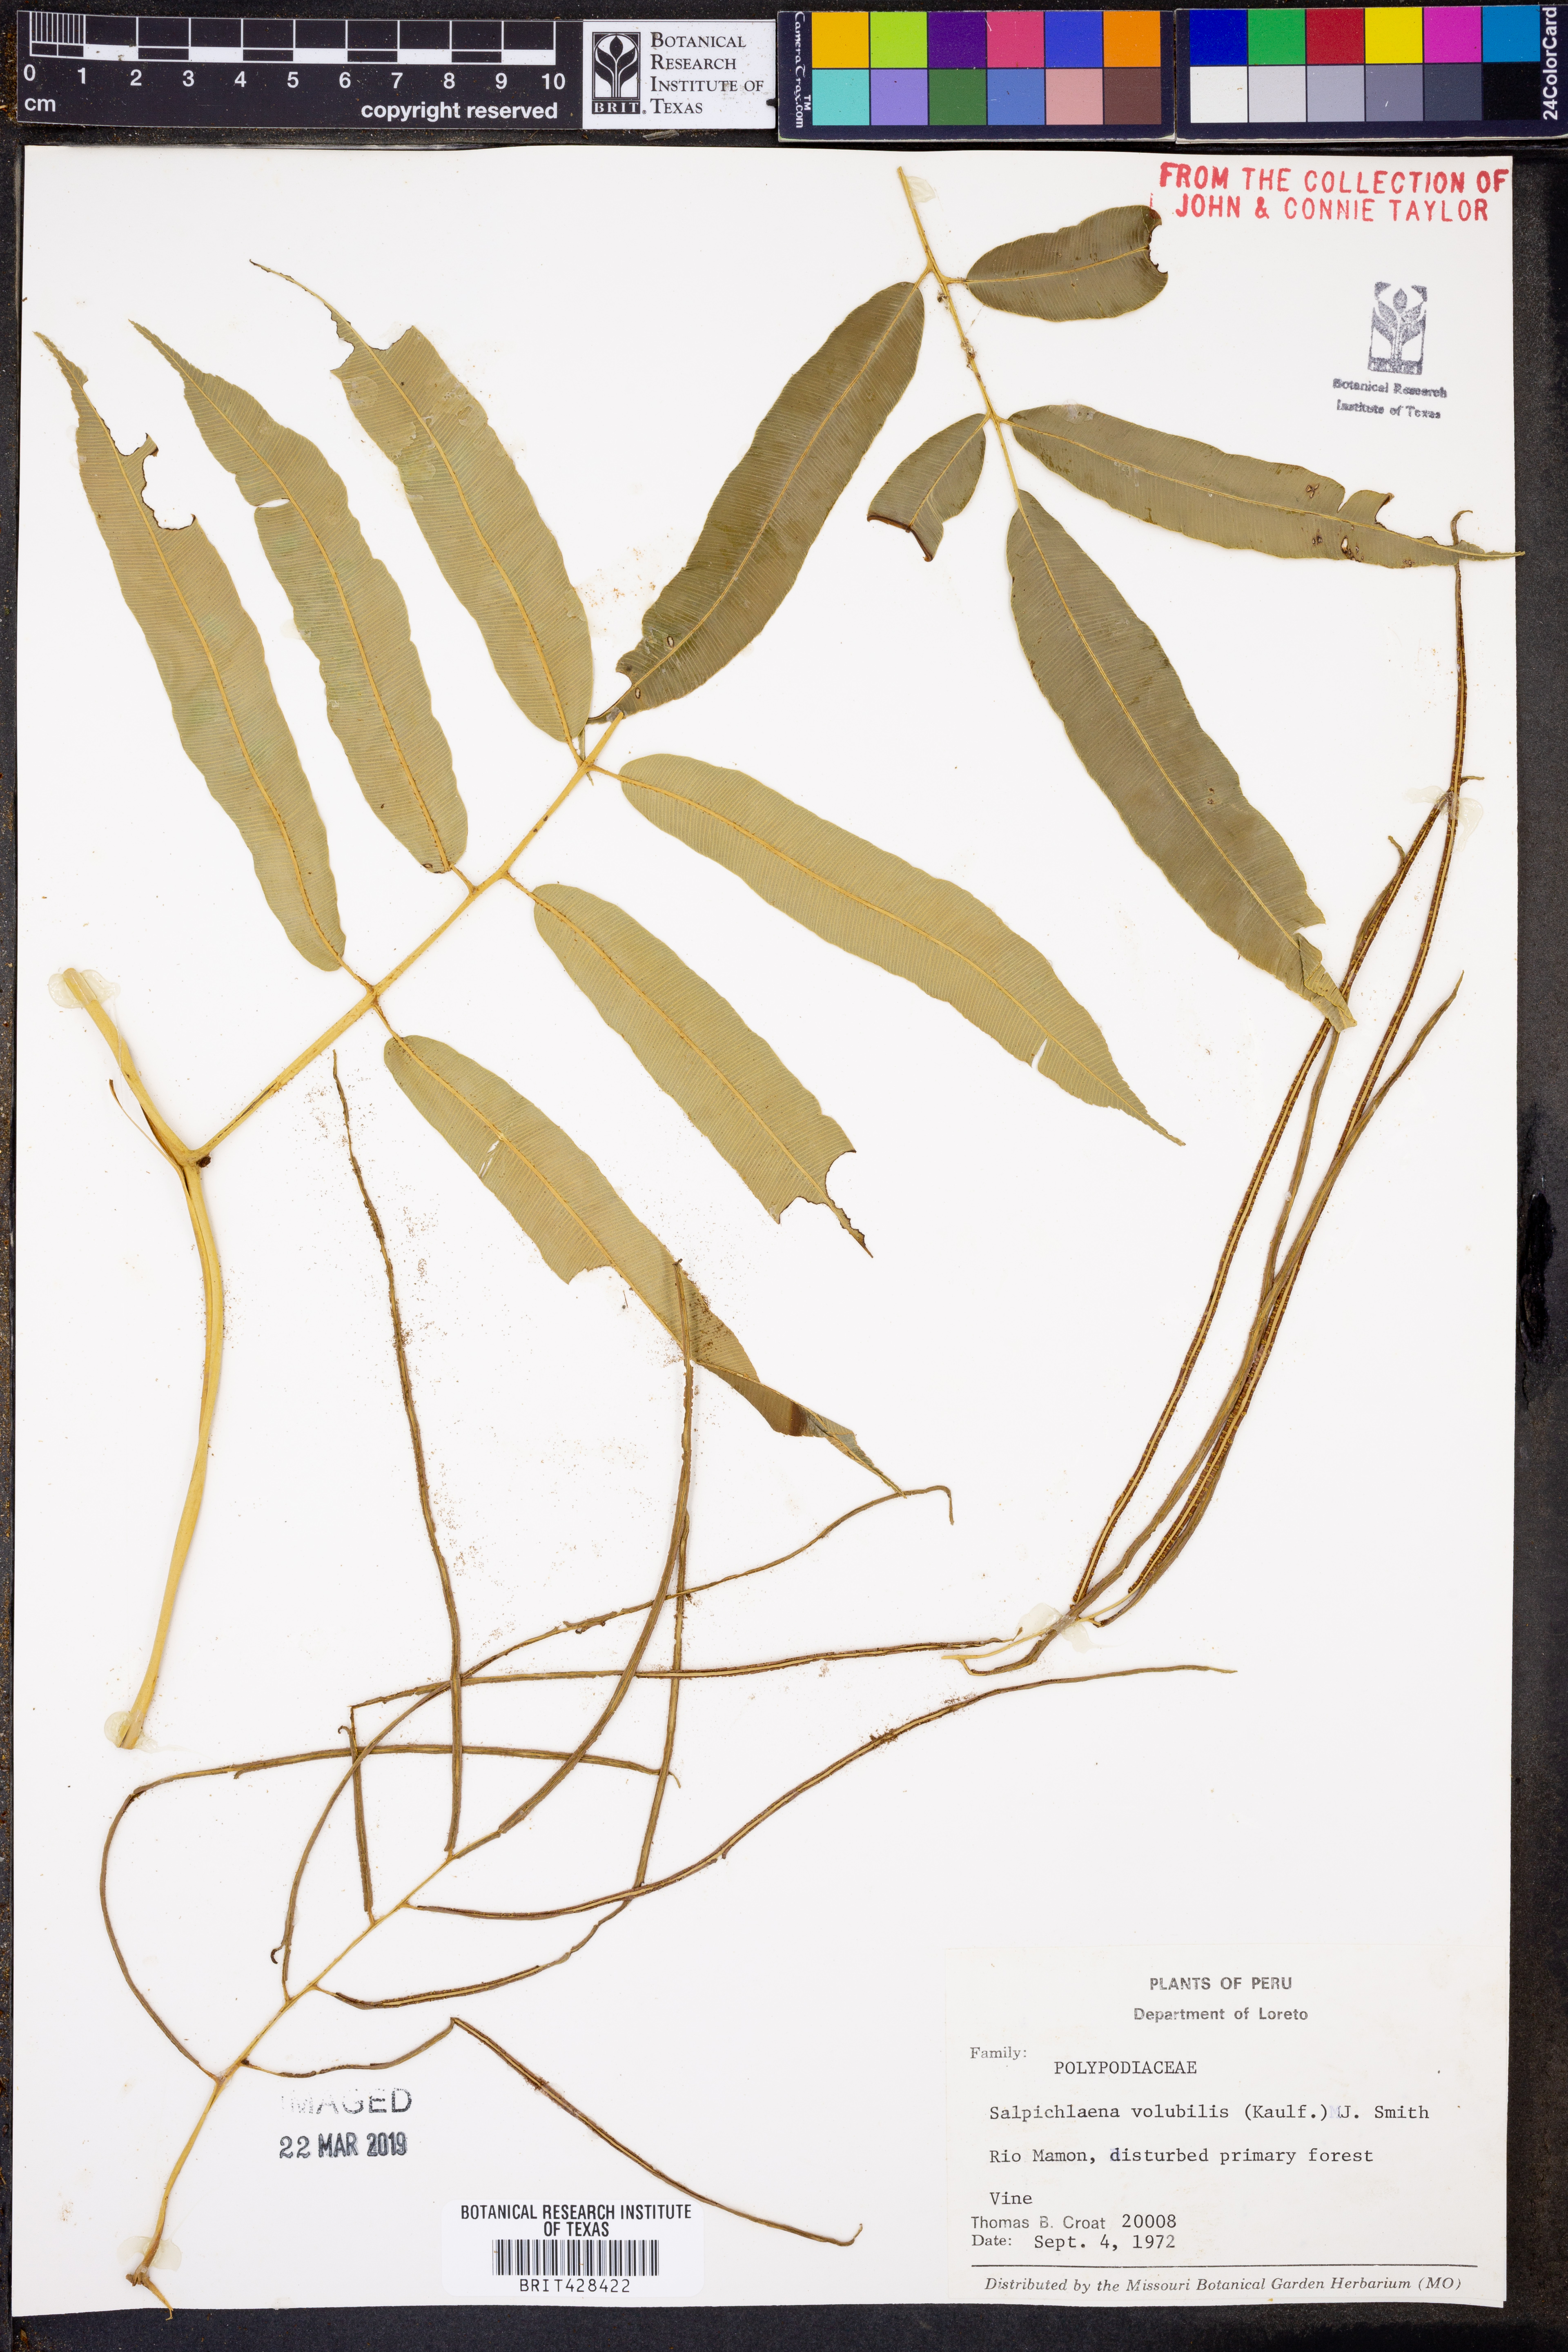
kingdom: Plantae
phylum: Tracheophyta
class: Polypodiopsida
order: Polypodiales
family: Blechnaceae
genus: Salpichlaena
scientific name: Salpichlaena volubilis
